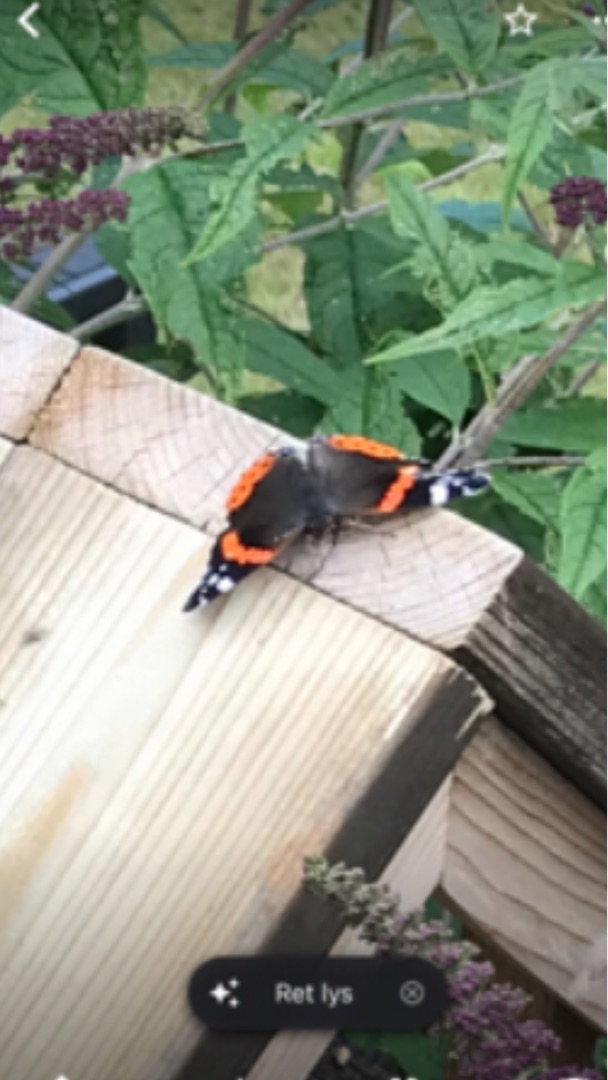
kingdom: Animalia
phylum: Arthropoda
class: Insecta
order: Lepidoptera
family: Nymphalidae
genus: Vanessa
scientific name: Vanessa atalanta
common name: Admiral
